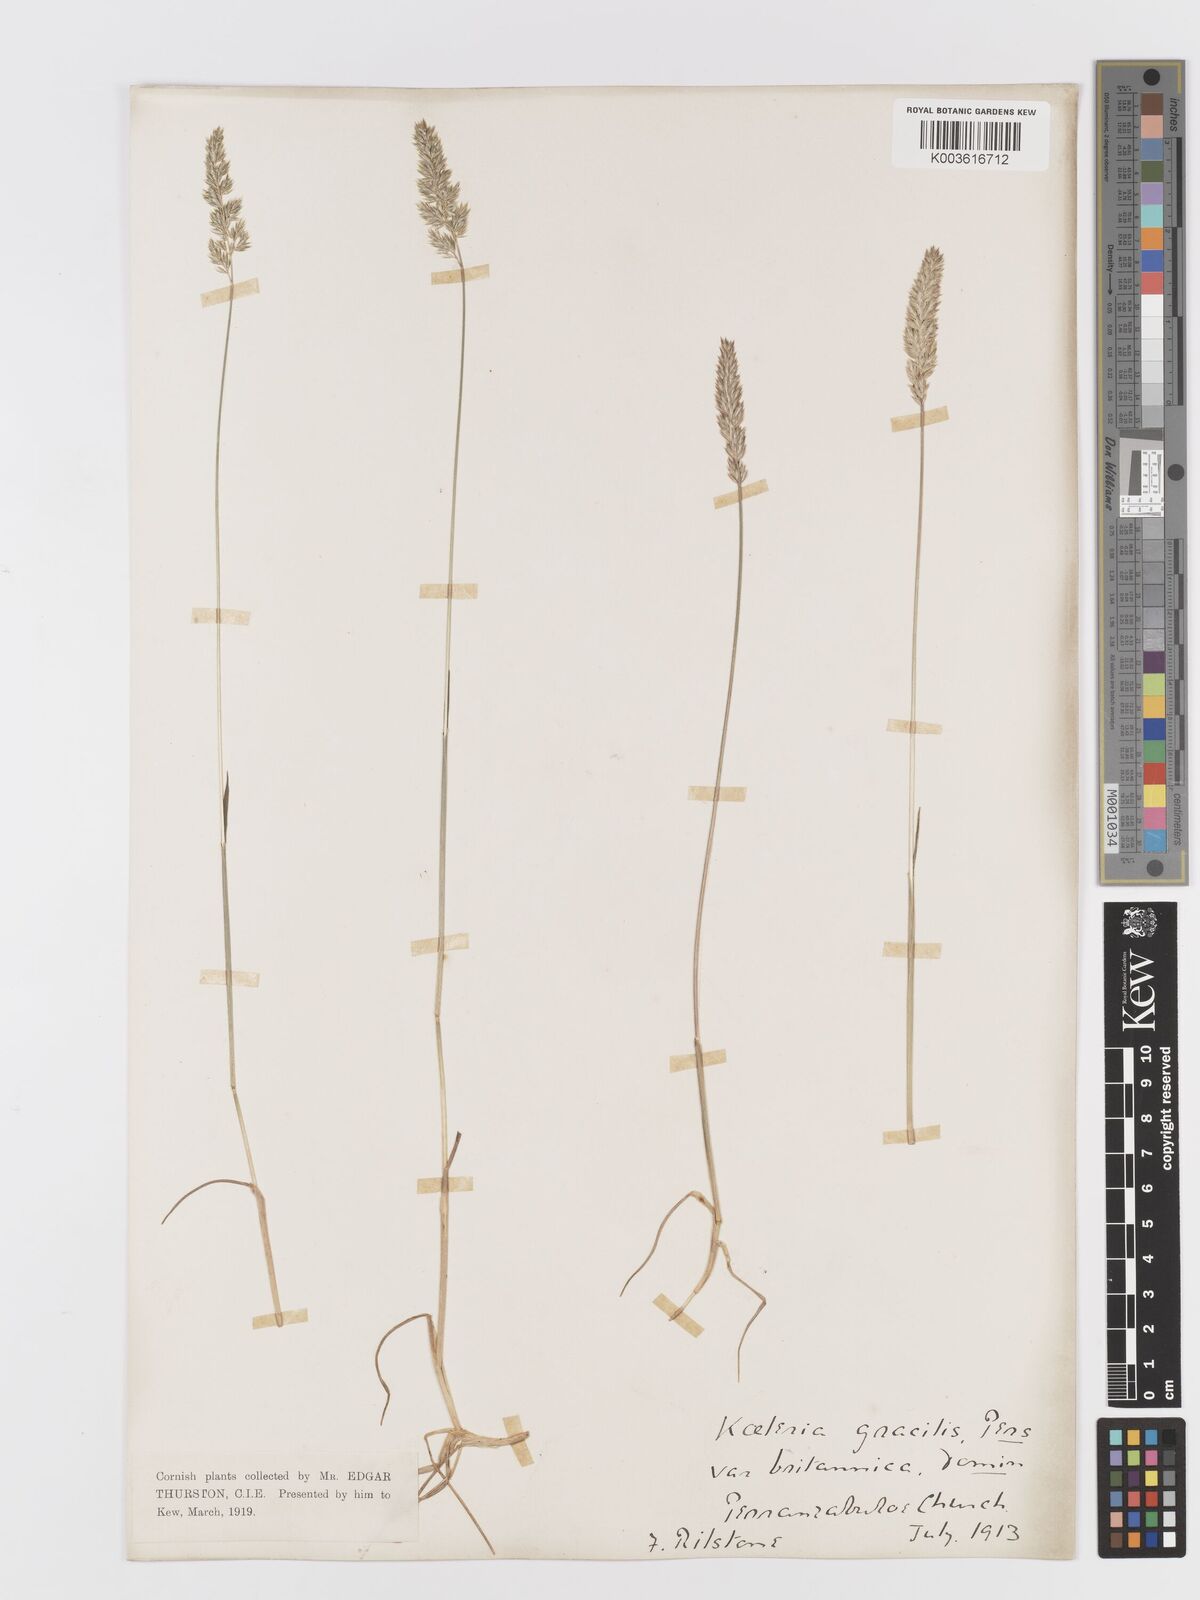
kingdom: Plantae
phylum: Tracheophyta
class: Liliopsida
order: Poales
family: Poaceae
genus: Koeleria
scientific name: Koeleria
